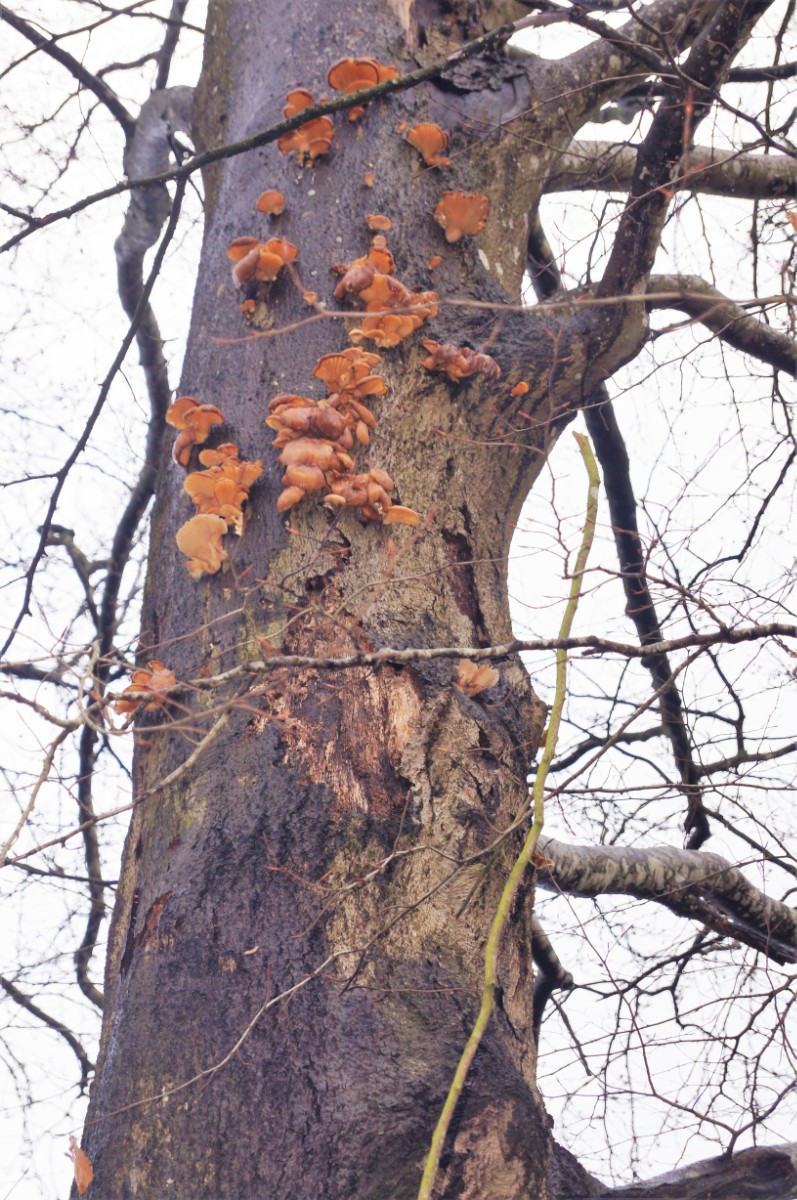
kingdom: Fungi
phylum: Basidiomycota
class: Agaricomycetes
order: Agaricales
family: Sarcomyxaceae
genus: Sarcomyxa
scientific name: Sarcomyxa serotina
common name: gummihat
